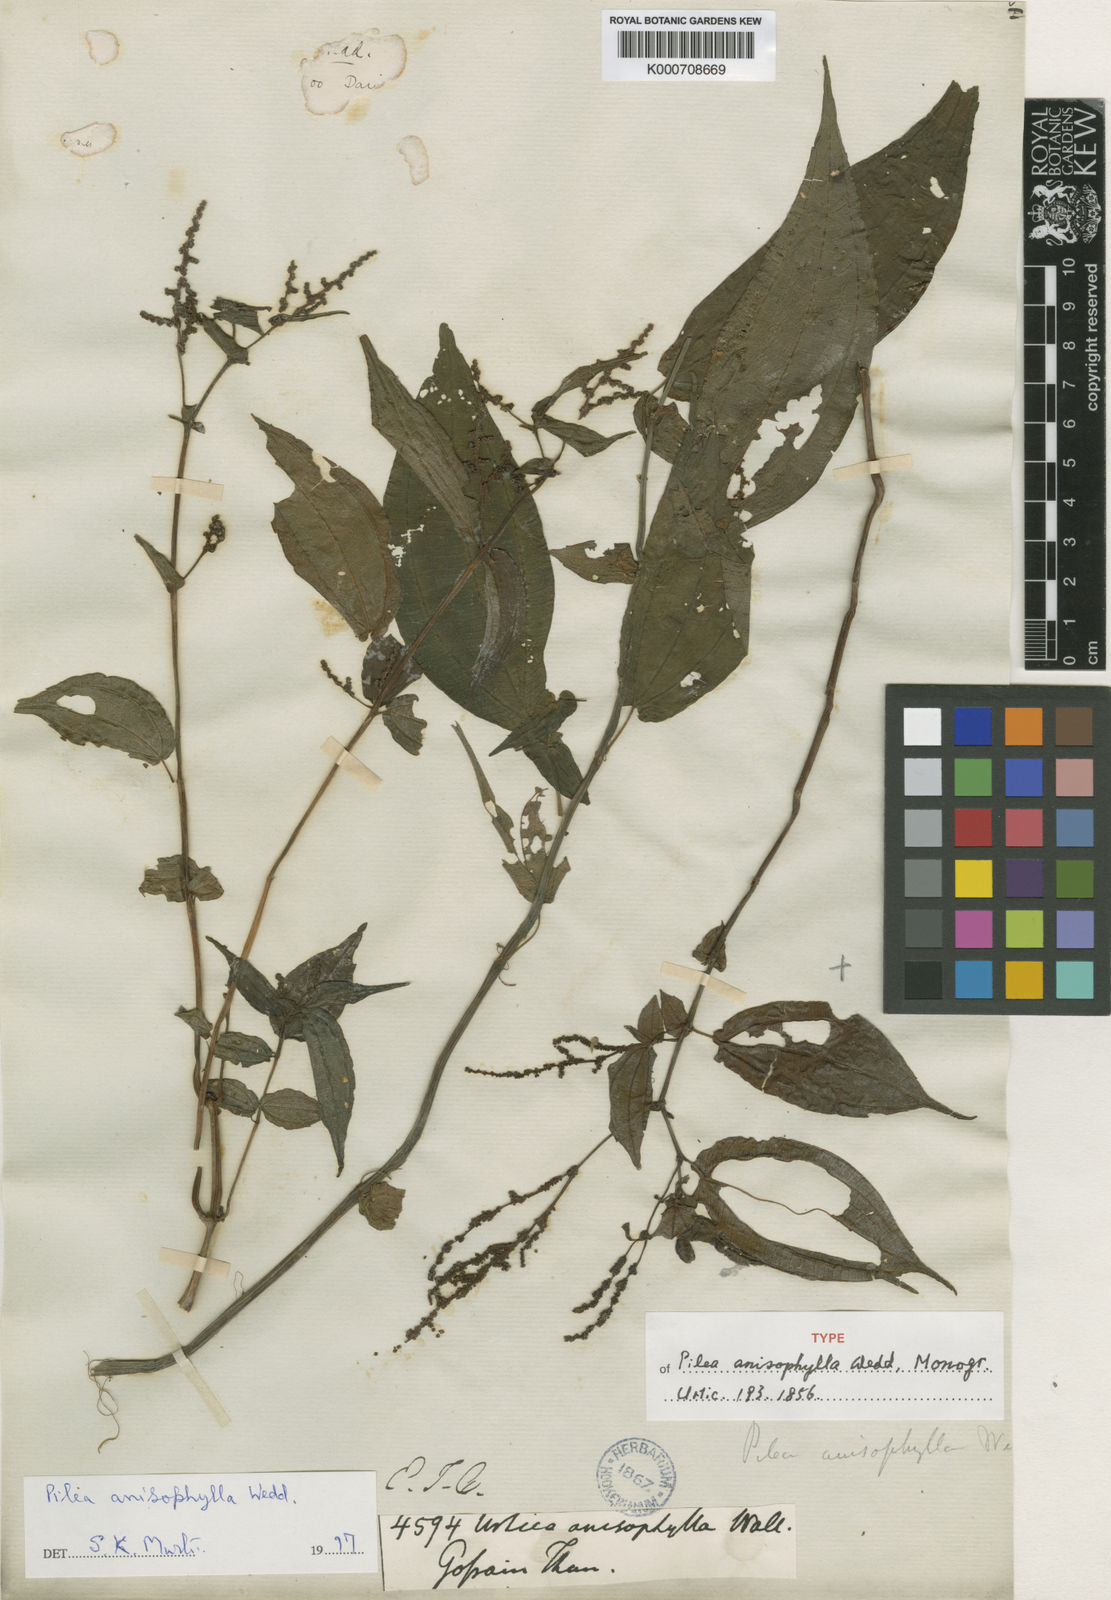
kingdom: Plantae
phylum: Tracheophyta
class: Magnoliopsida
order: Rosales
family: Urticaceae
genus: Pilea
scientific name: Pilea anisophylla
